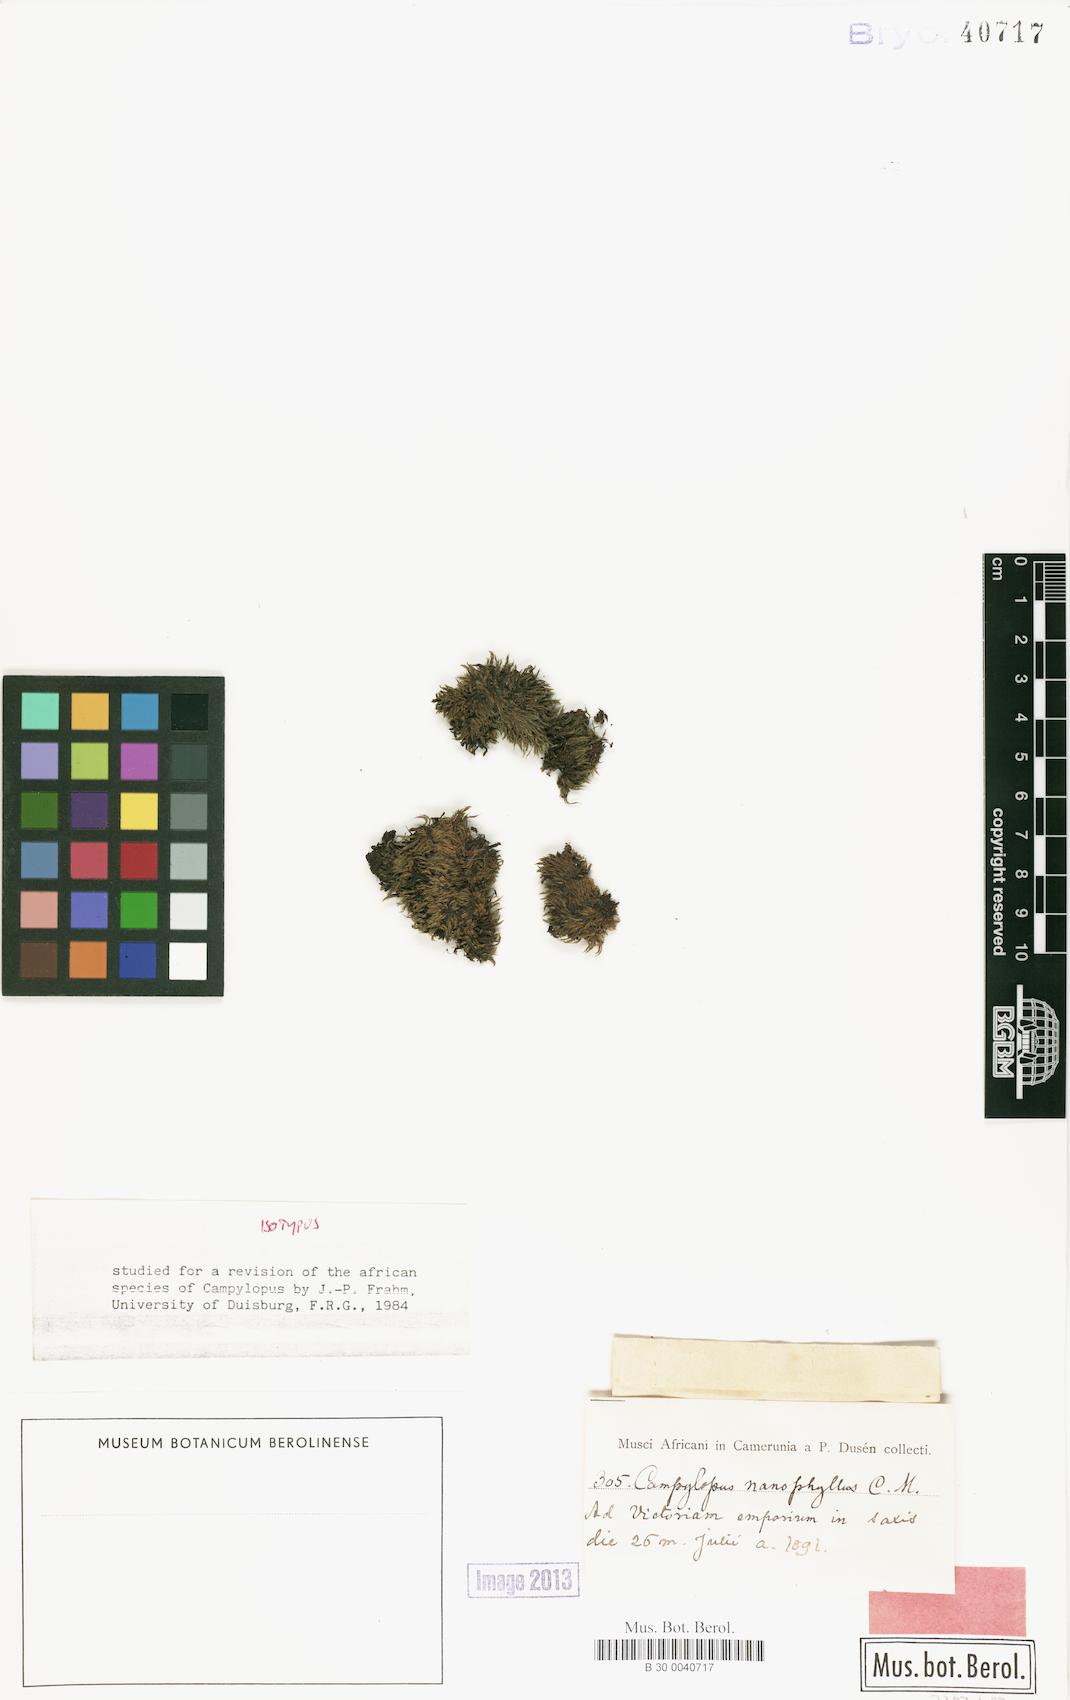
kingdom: Plantae
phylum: Bryophyta
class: Bryopsida
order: Dicranales
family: Leucobryaceae
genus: Campylopus
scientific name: Campylopus nanophyllus
